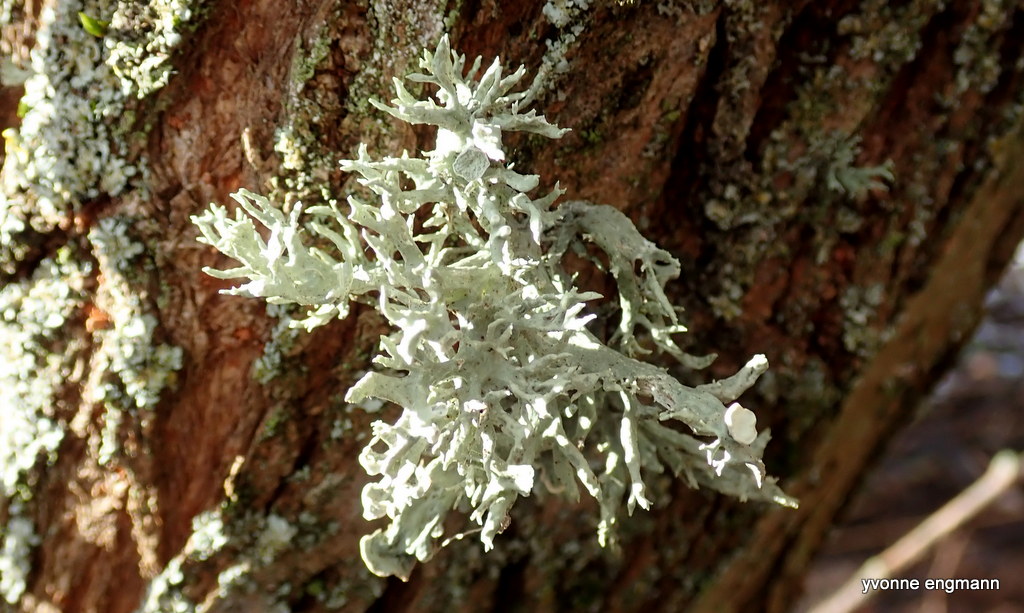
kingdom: Fungi
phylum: Ascomycota
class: Lecanoromycetes
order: Lecanorales
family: Ramalinaceae
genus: Ramalina
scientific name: Ramalina fastigiata
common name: tue-grenlav
